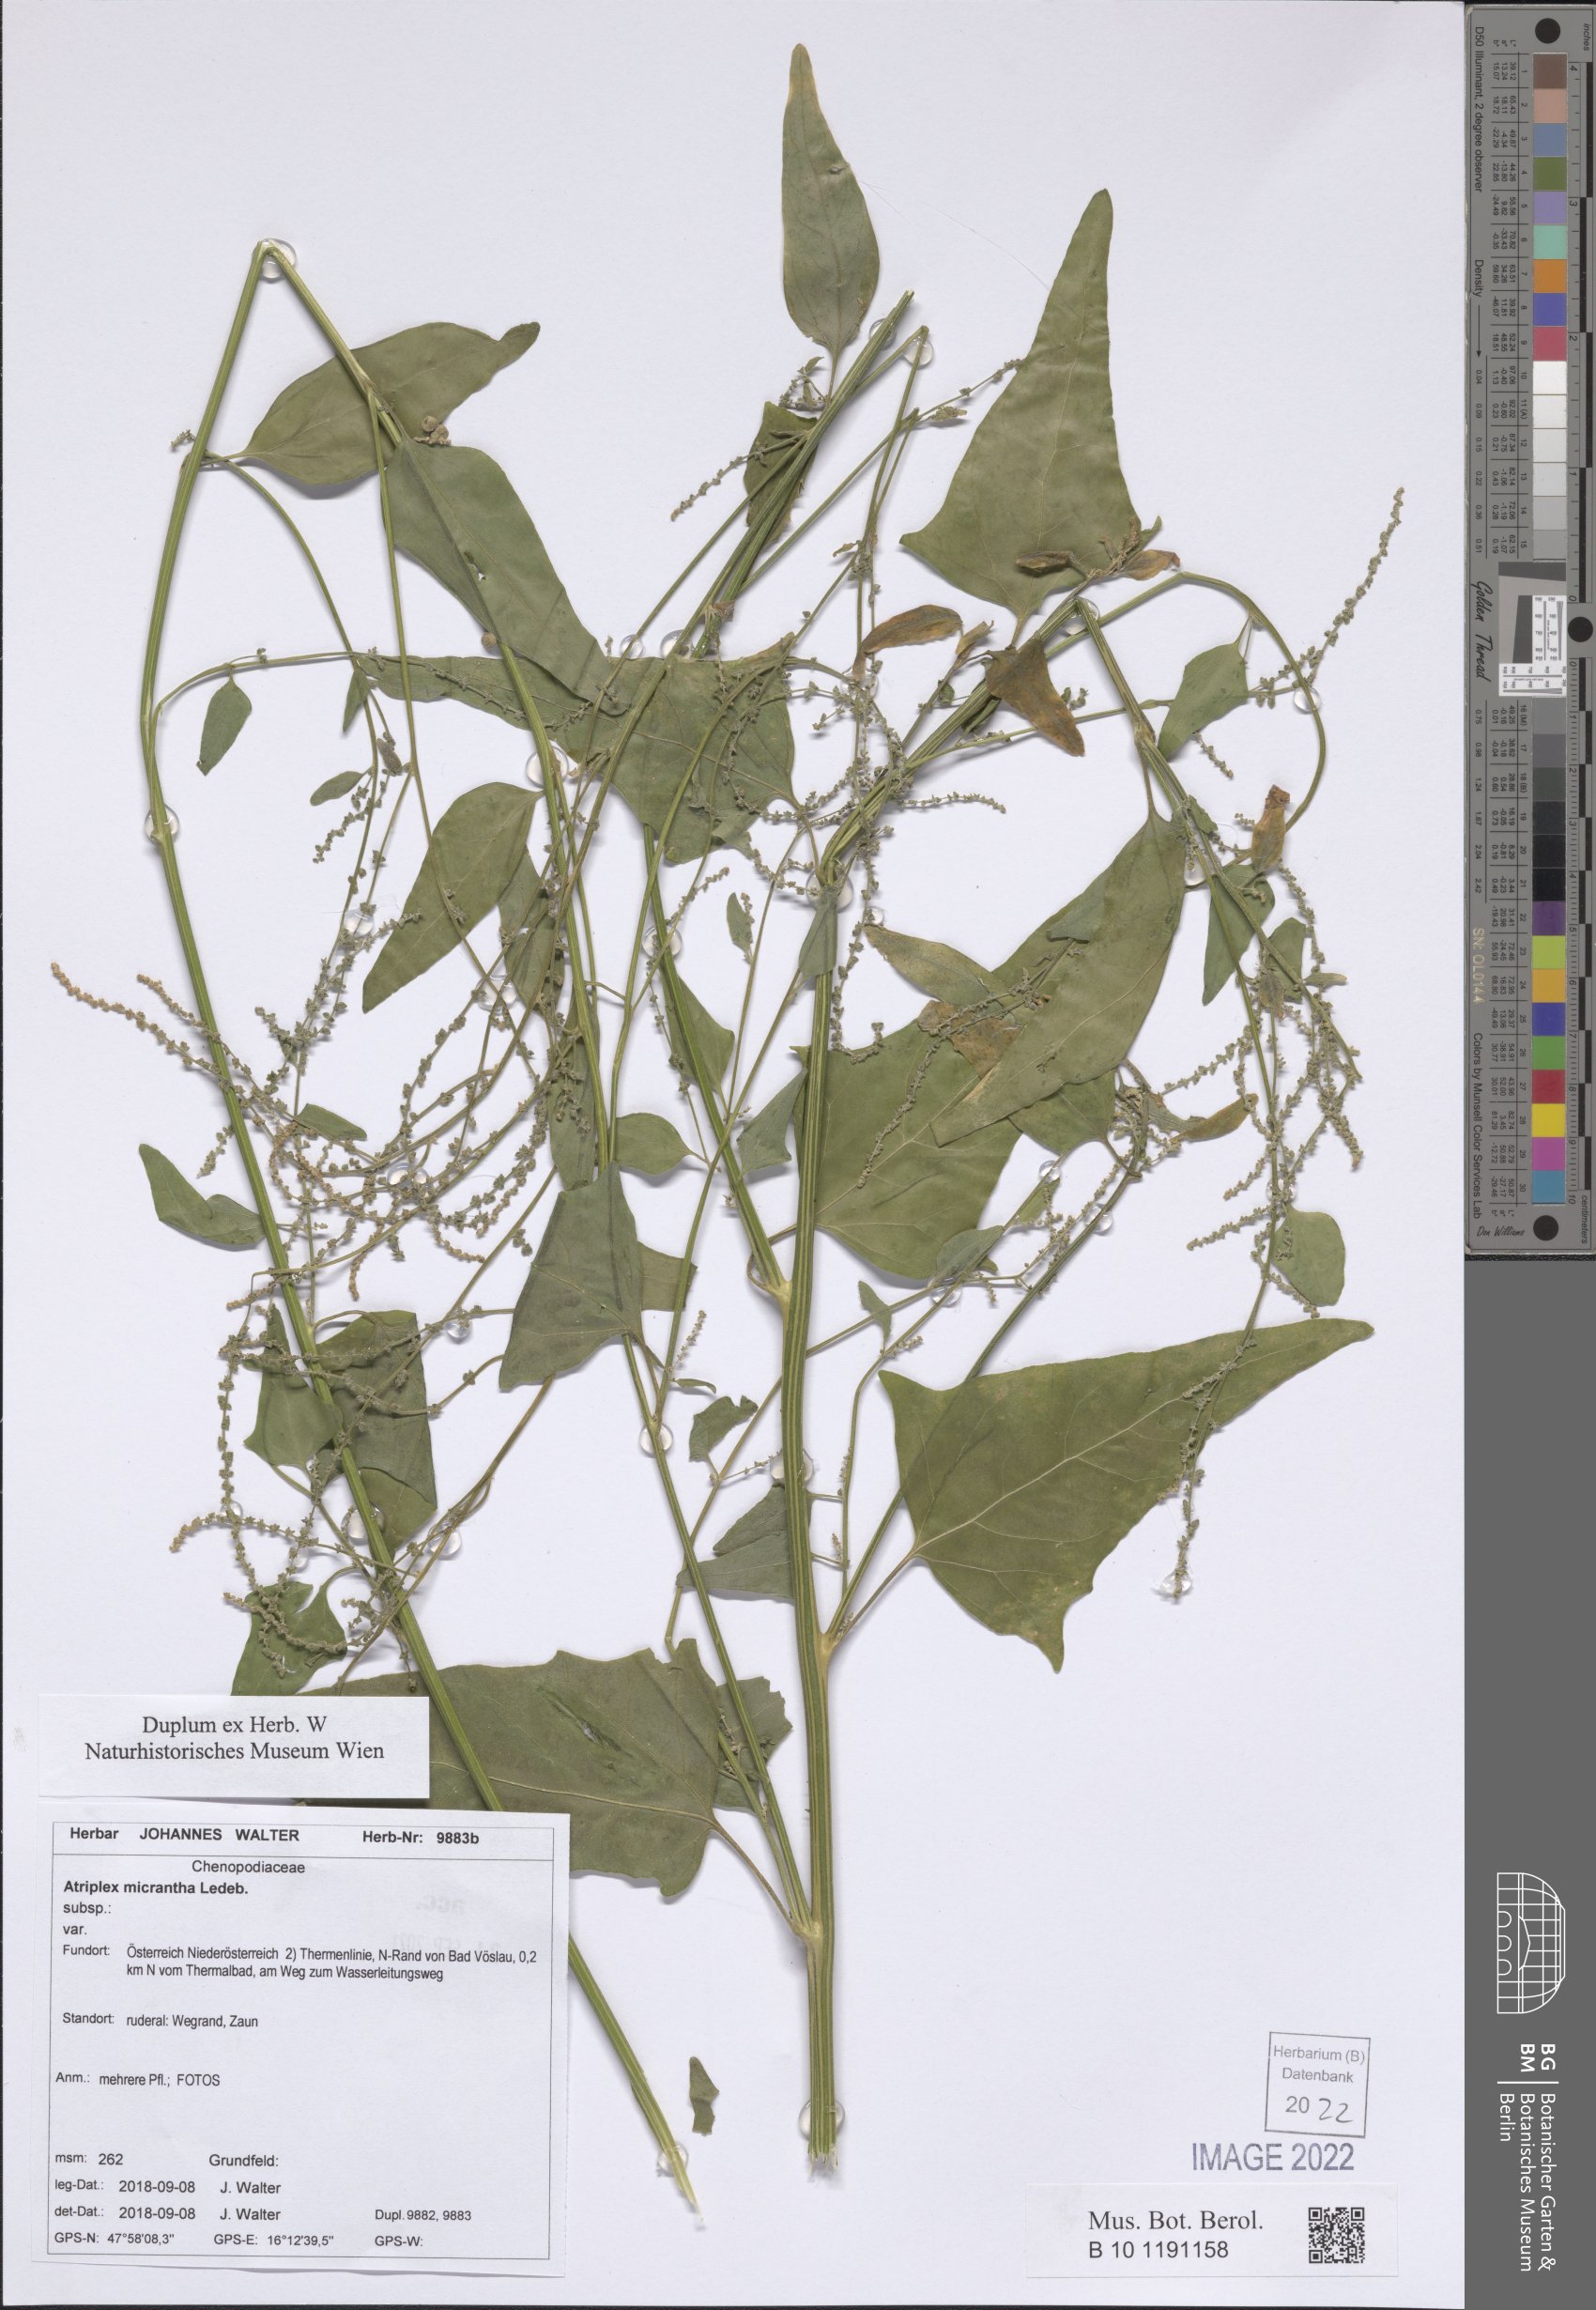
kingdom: Plantae
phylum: Tracheophyta
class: Magnoliopsida
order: Caryophyllales
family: Amaranthaceae
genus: Atriplex
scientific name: Atriplex micrantha
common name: Twoscale saltbush
